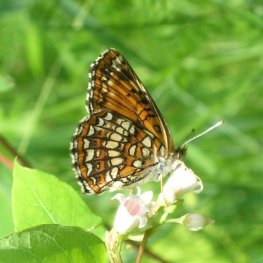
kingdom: Animalia
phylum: Arthropoda
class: Insecta
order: Lepidoptera
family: Nymphalidae
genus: Chlosyne
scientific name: Chlosyne harrisii
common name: Harris's Checkerspot
